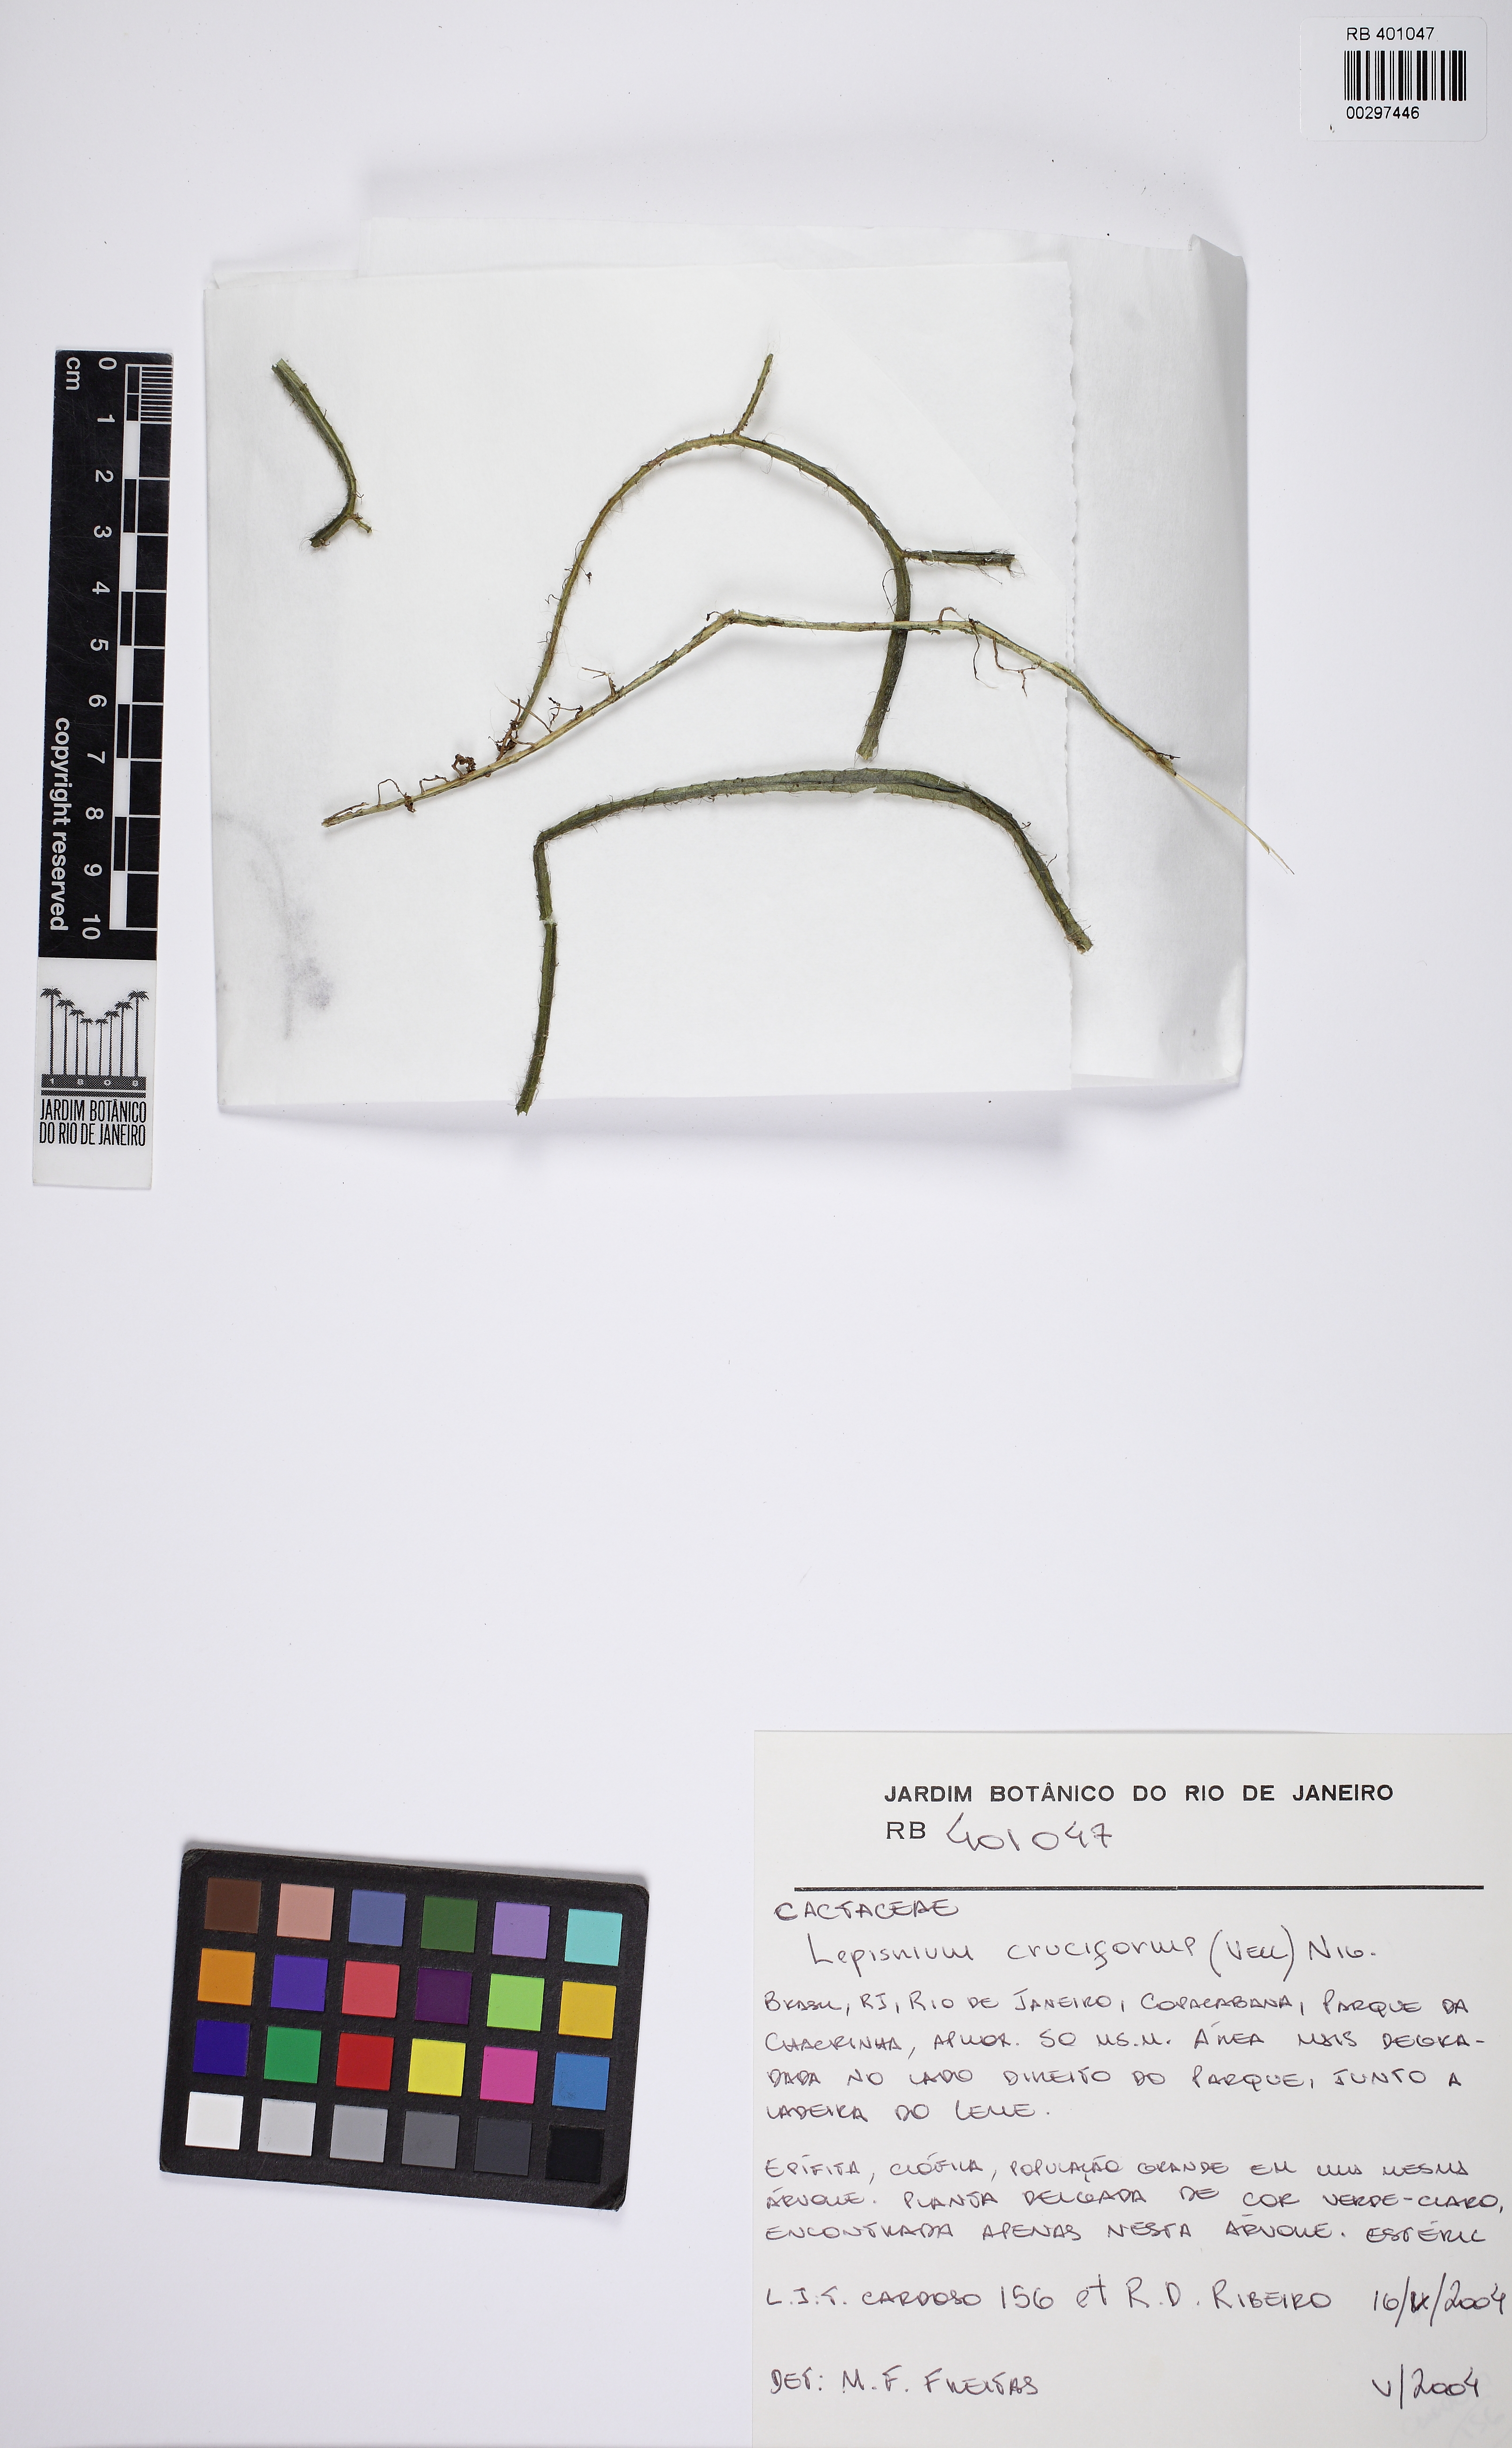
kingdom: Plantae
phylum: Tracheophyta
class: Magnoliopsida
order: Caryophyllales
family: Cactaceae
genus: Lepismium
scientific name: Lepismium cruciforme
